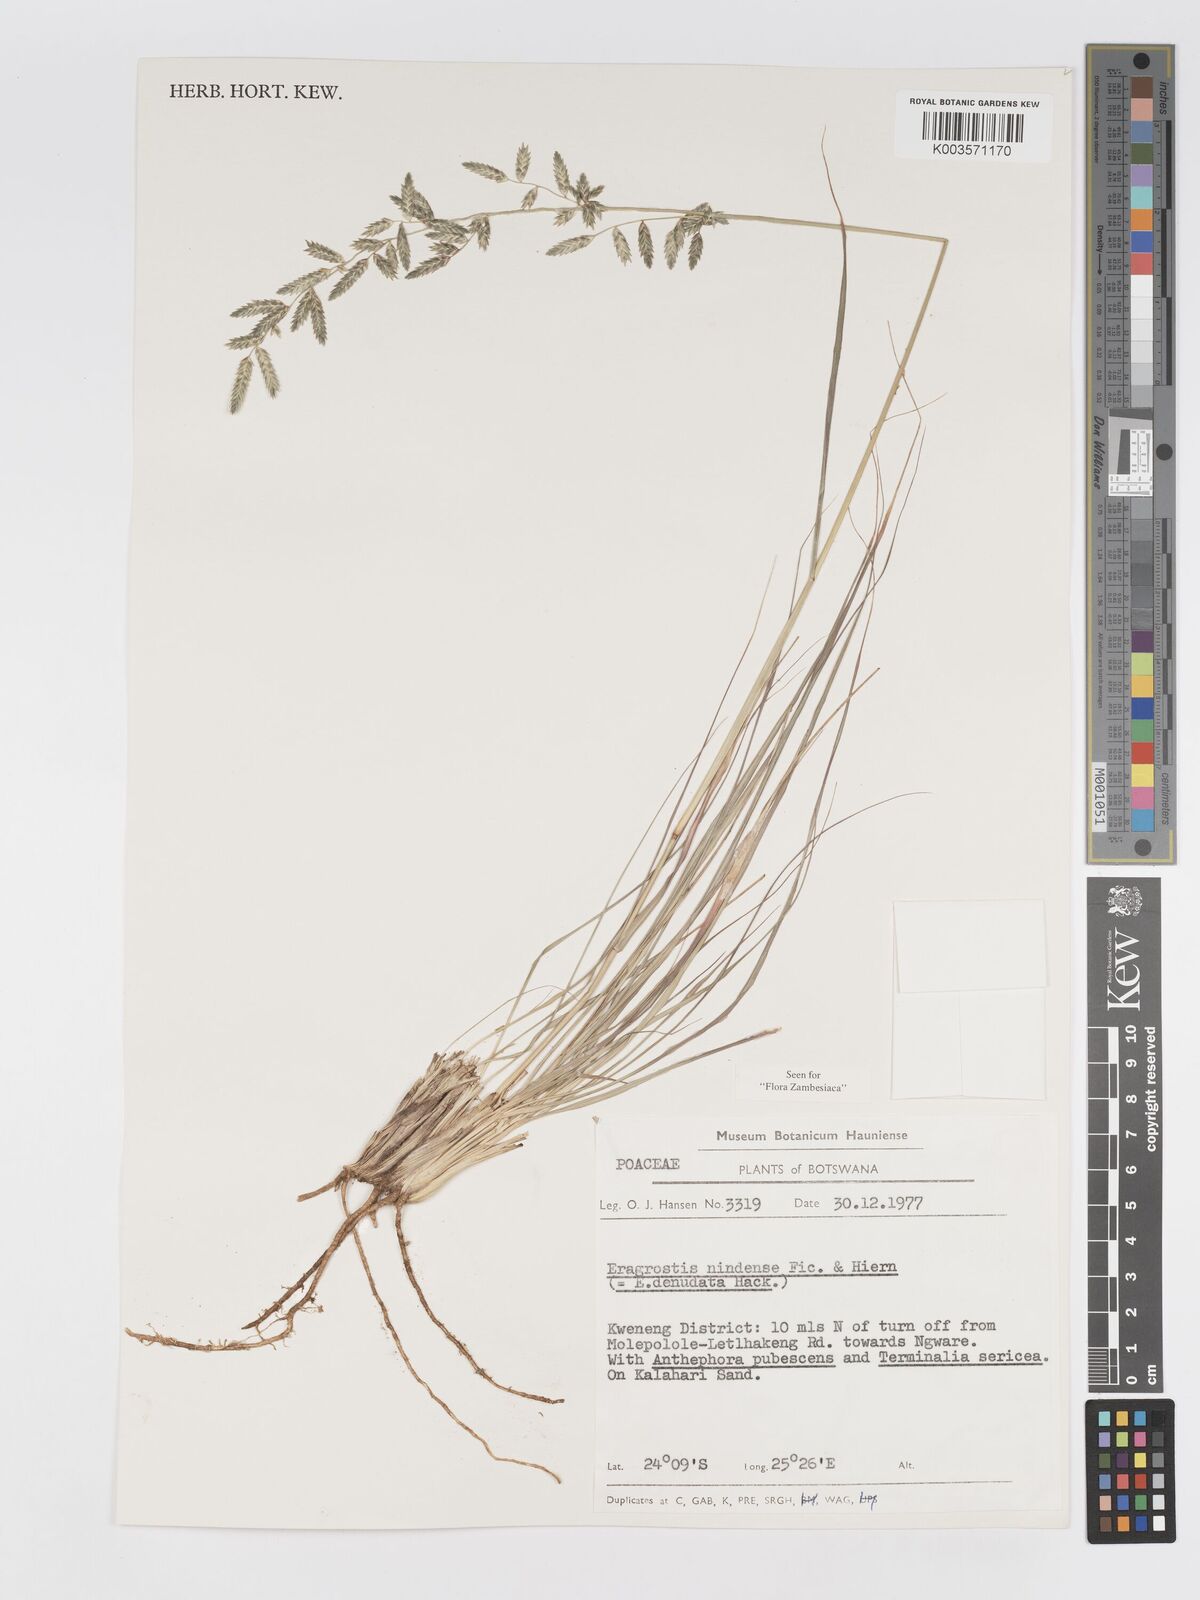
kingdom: Plantae
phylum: Tracheophyta
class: Liliopsida
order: Poales
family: Poaceae
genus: Eragrostis
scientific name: Eragrostis nindensis
